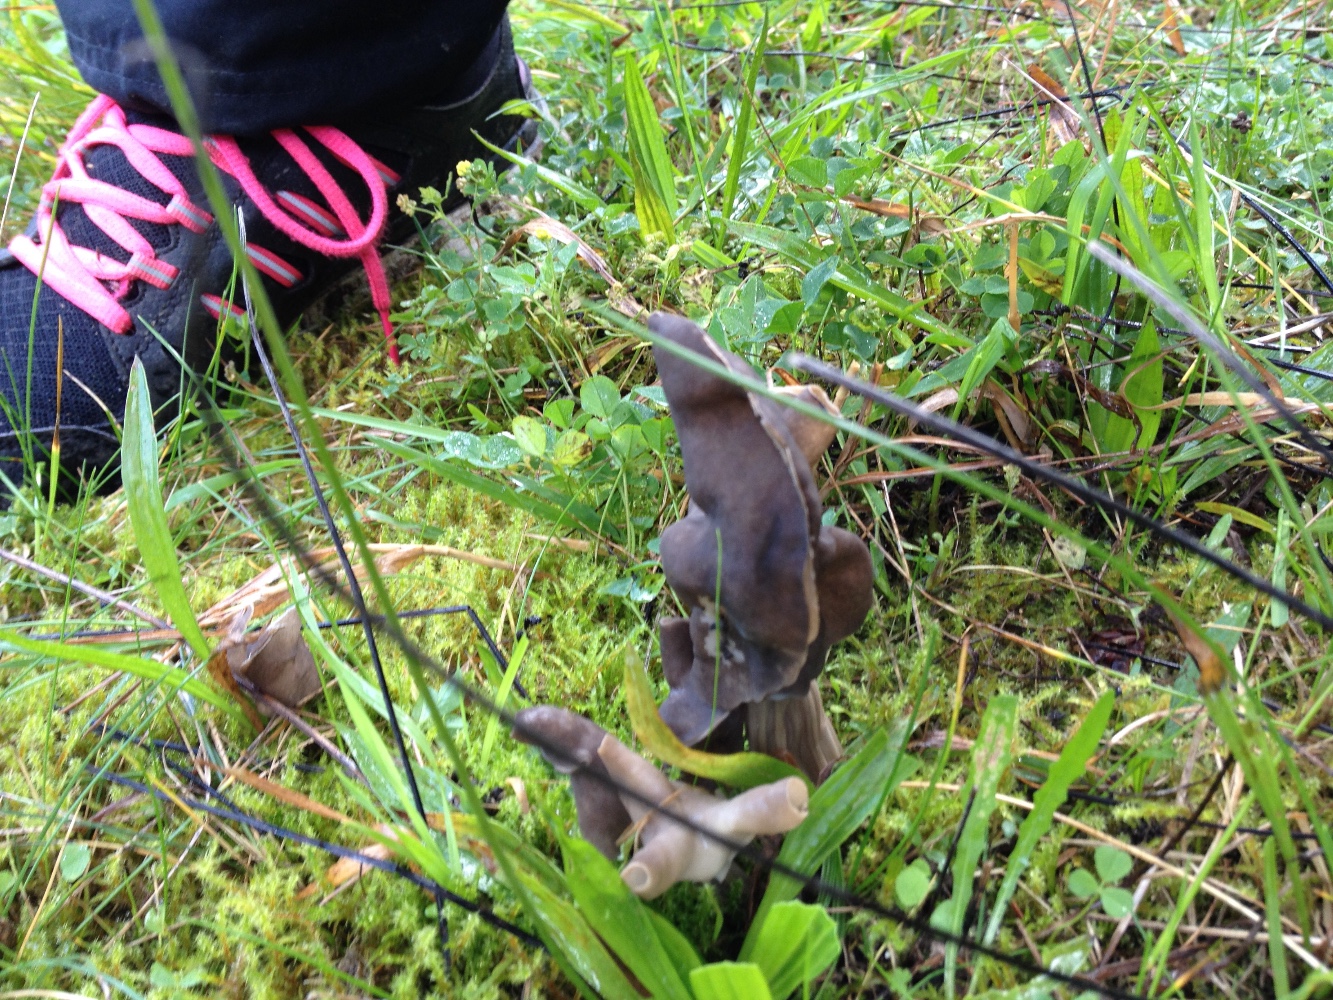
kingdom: Fungi
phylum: Ascomycota
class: Pezizomycetes
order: Pezizales
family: Helvellaceae
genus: Helvella
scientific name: Helvella lacunosa
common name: grubet foldhat
